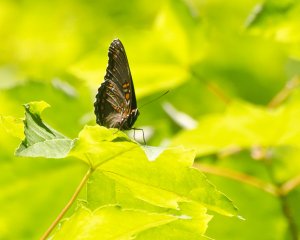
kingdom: Animalia
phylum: Arthropoda
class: Insecta
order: Lepidoptera
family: Nymphalidae
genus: Limenitis
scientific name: Limenitis astyanax
